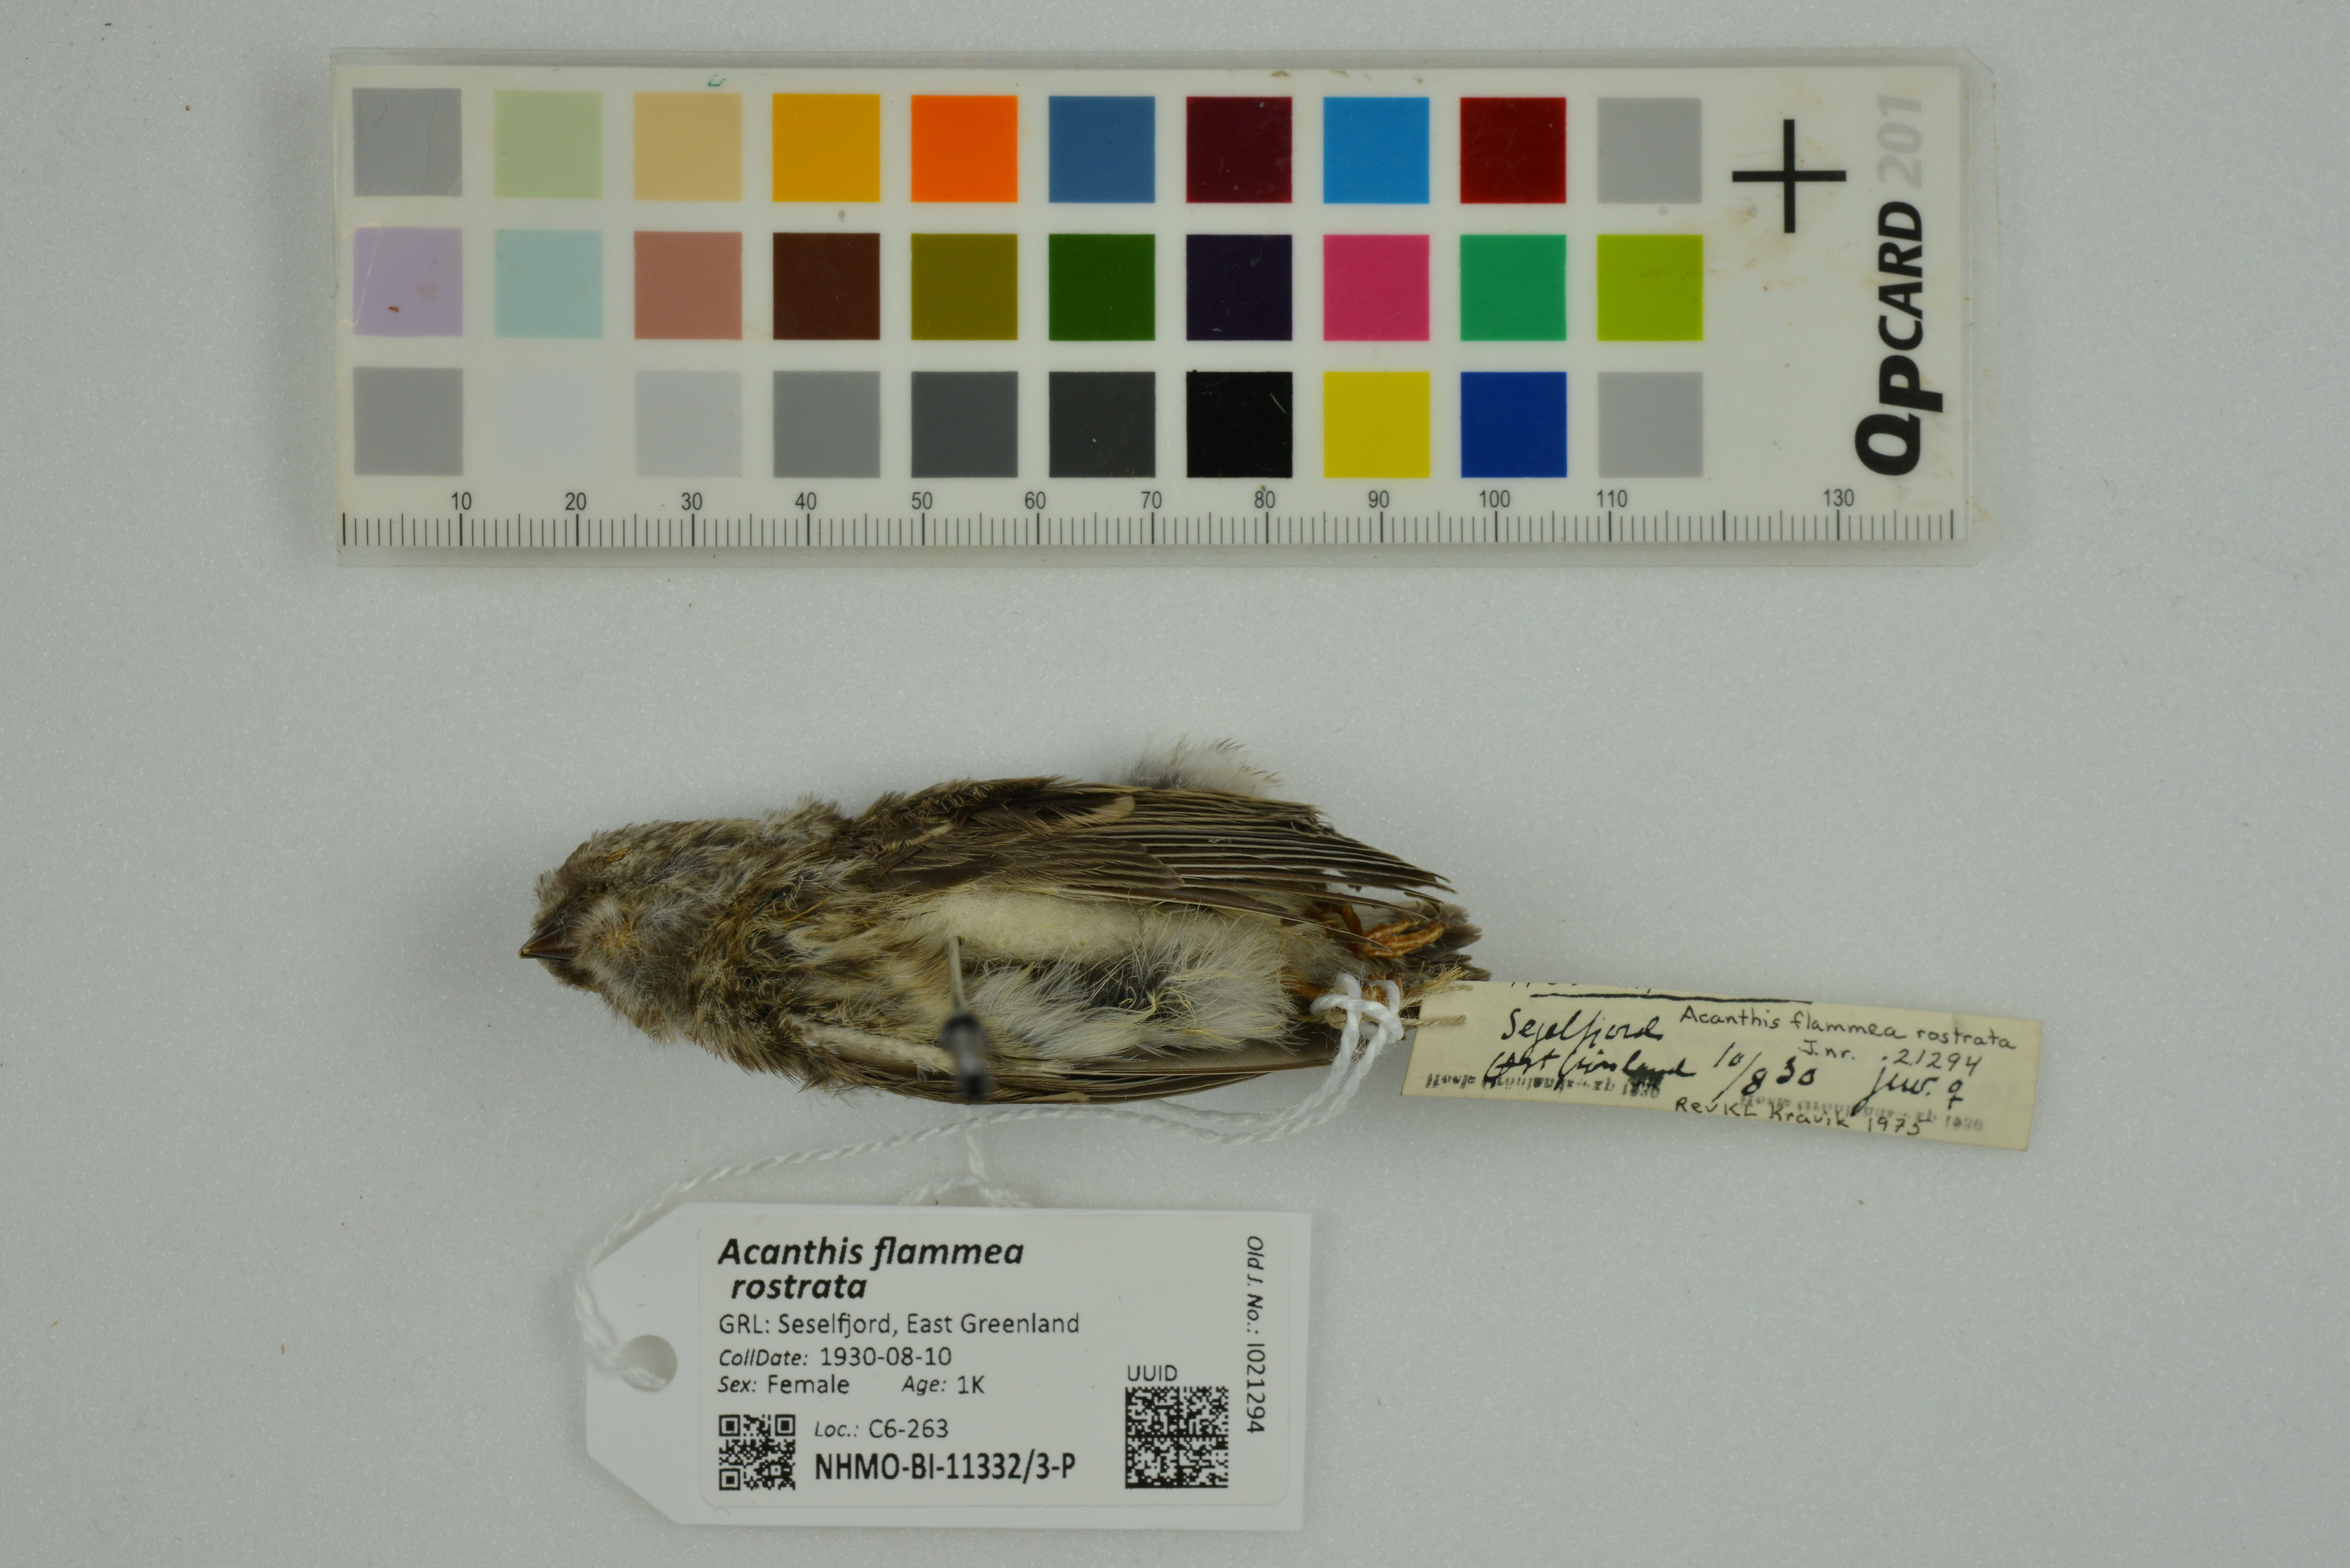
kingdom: Animalia
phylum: Chordata
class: Aves
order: Passeriformes
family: Fringillidae
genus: Acanthis
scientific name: Acanthis flammea
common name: Common redpoll
